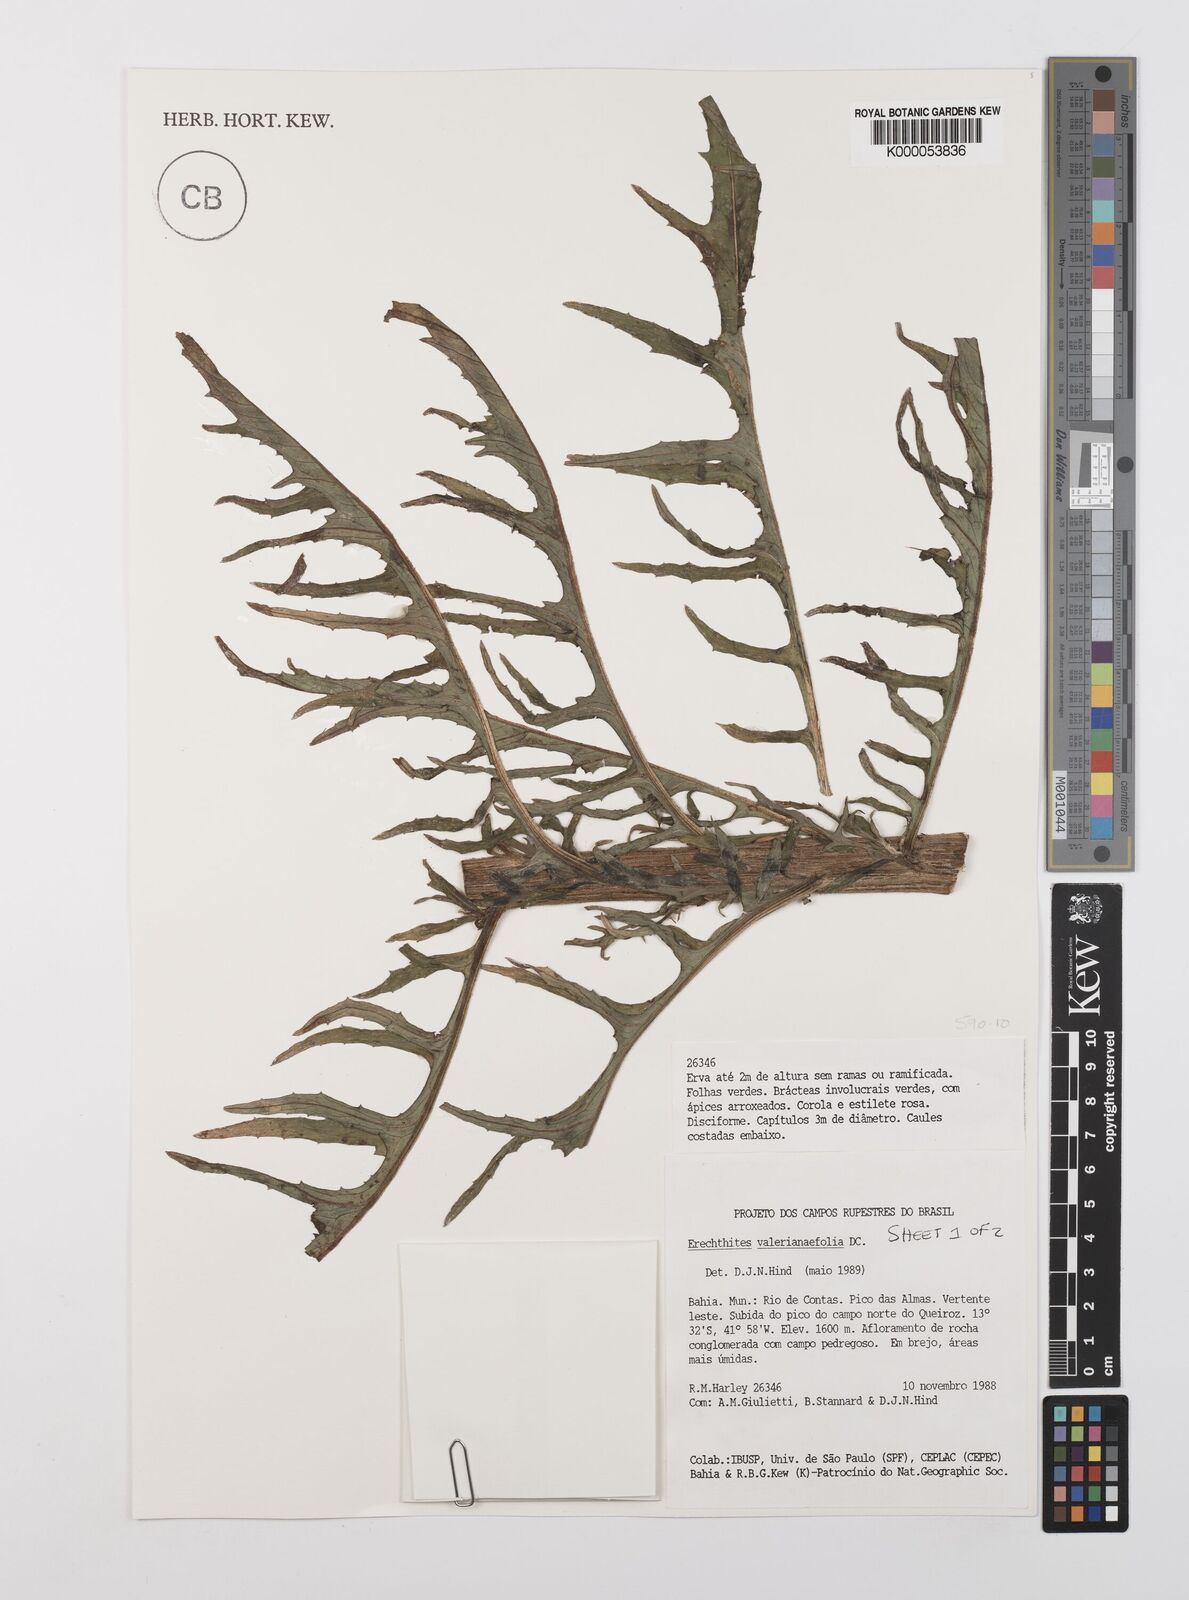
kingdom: Plantae
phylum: Tracheophyta
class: Magnoliopsida
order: Asterales
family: Asteraceae
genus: Erechtites
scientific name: Erechtites valerianifolius
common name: Tropical burnweed
